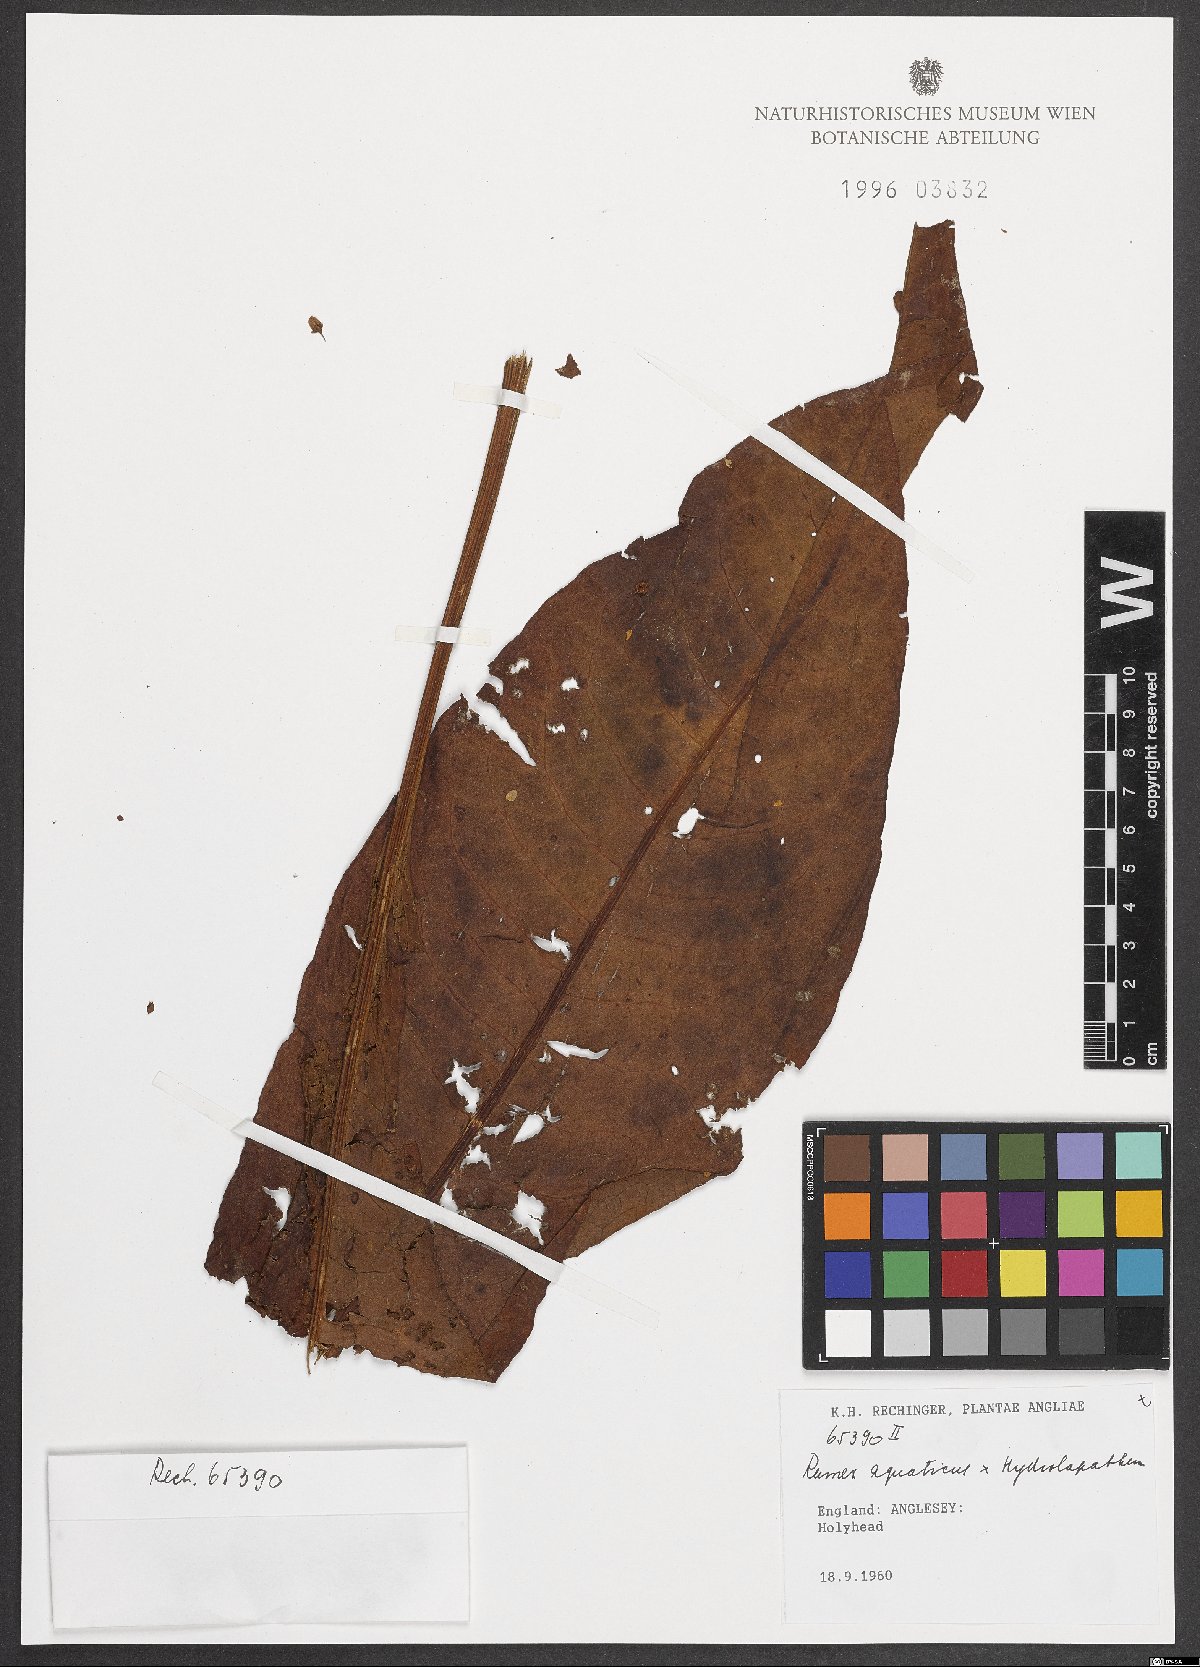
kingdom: Plantae
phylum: Tracheophyta
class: Magnoliopsida
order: Caryophyllales
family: Polygonaceae
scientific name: Polygonaceae
